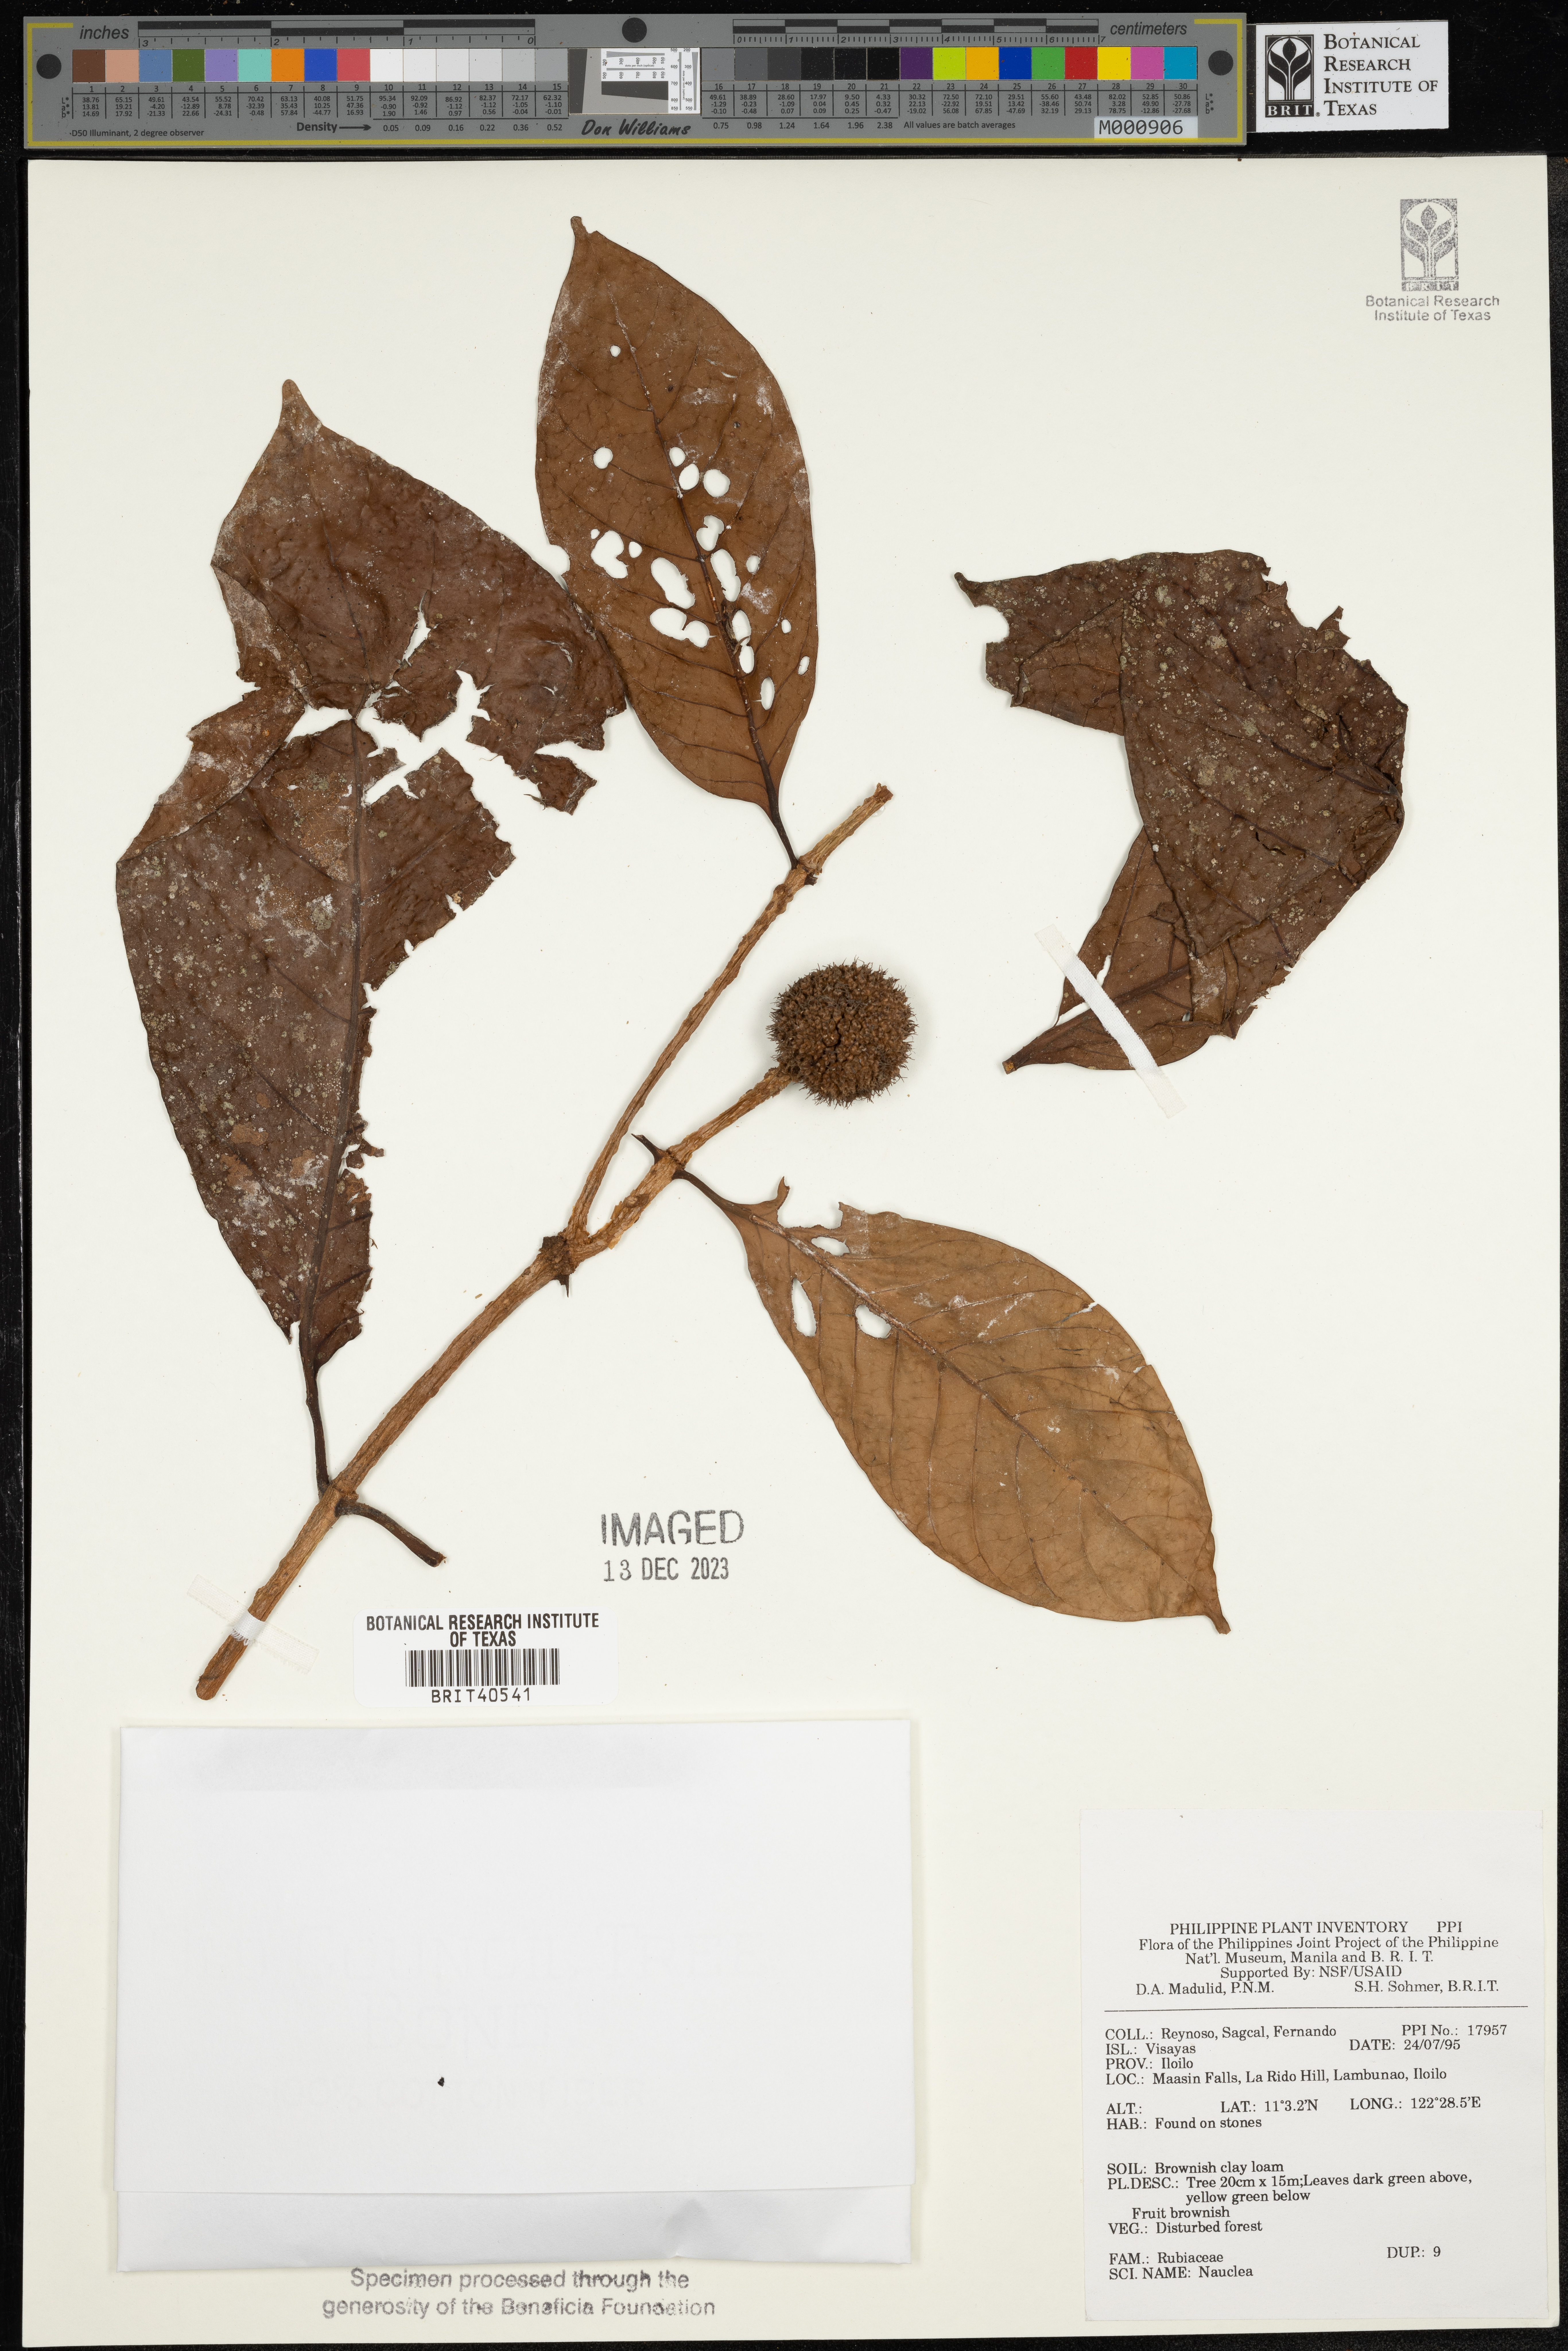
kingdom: Plantae
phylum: Tracheophyta
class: Magnoliopsida
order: Gentianales
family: Rubiaceae
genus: Nauclea
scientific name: Nauclea
